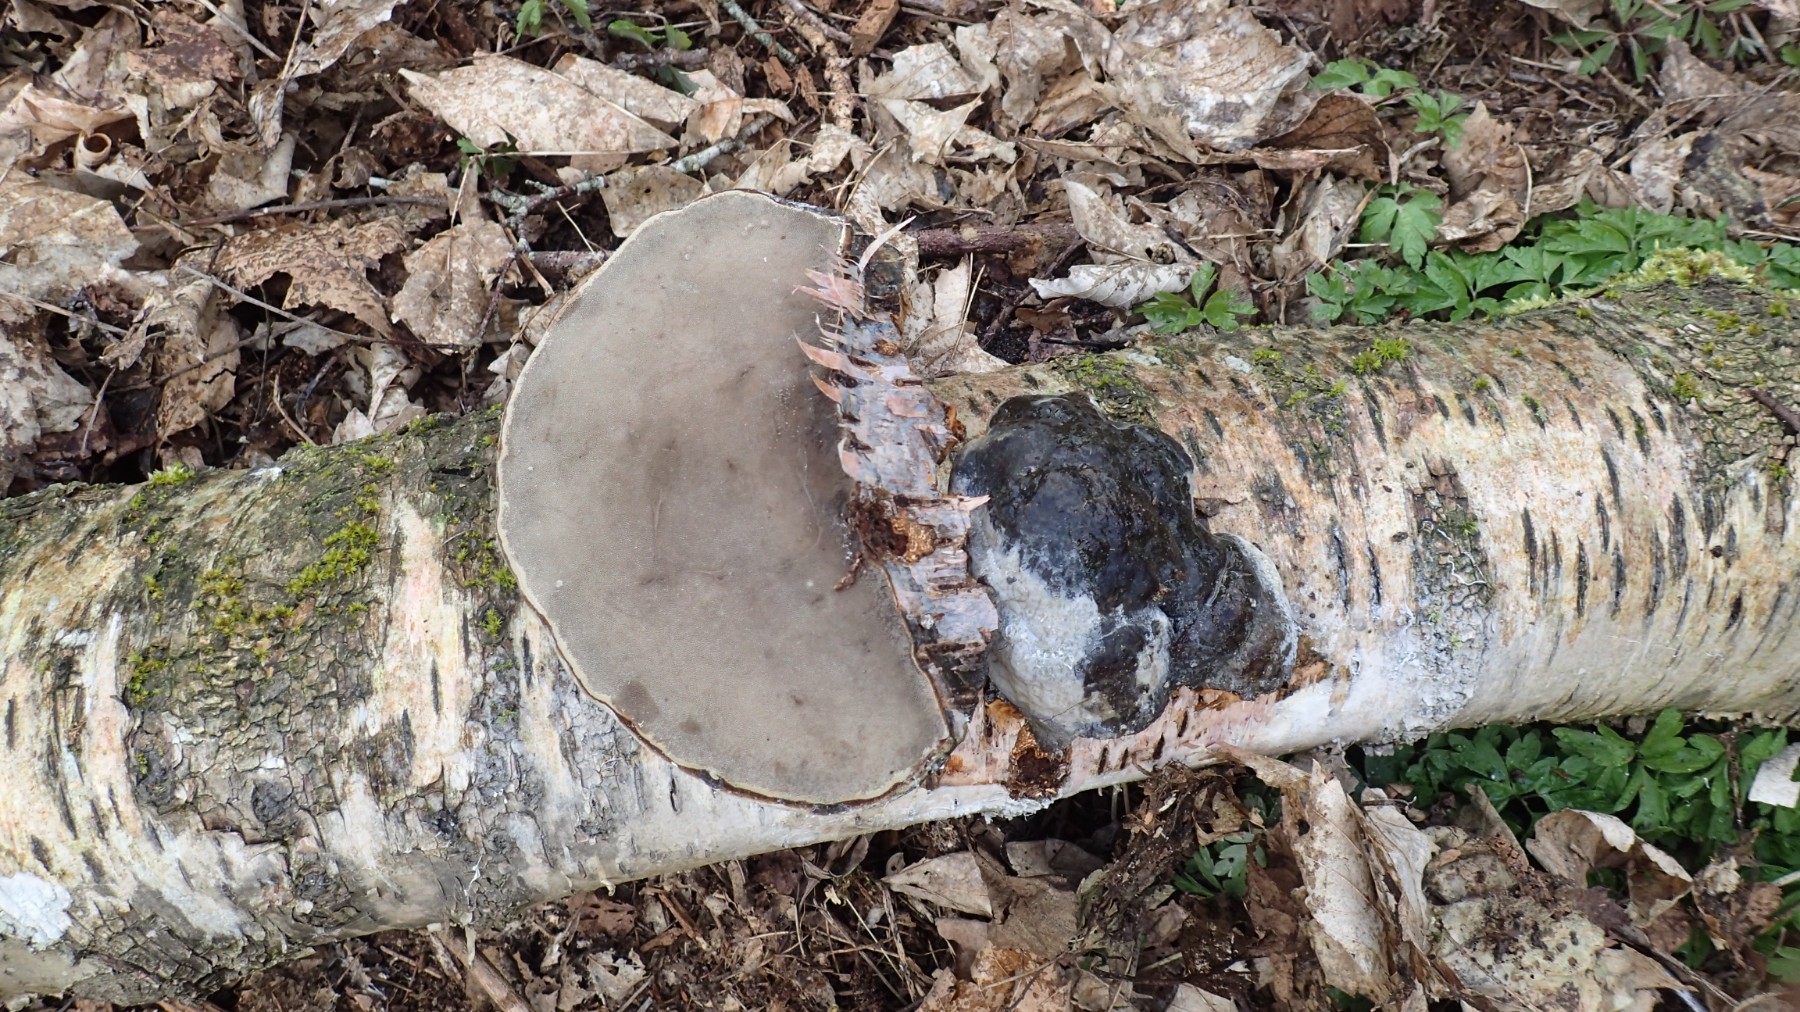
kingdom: Fungi
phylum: Basidiomycota
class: Agaricomycetes
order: Polyporales
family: Polyporaceae
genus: Fomes
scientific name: Fomes fomentarius
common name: tøndersvamp
